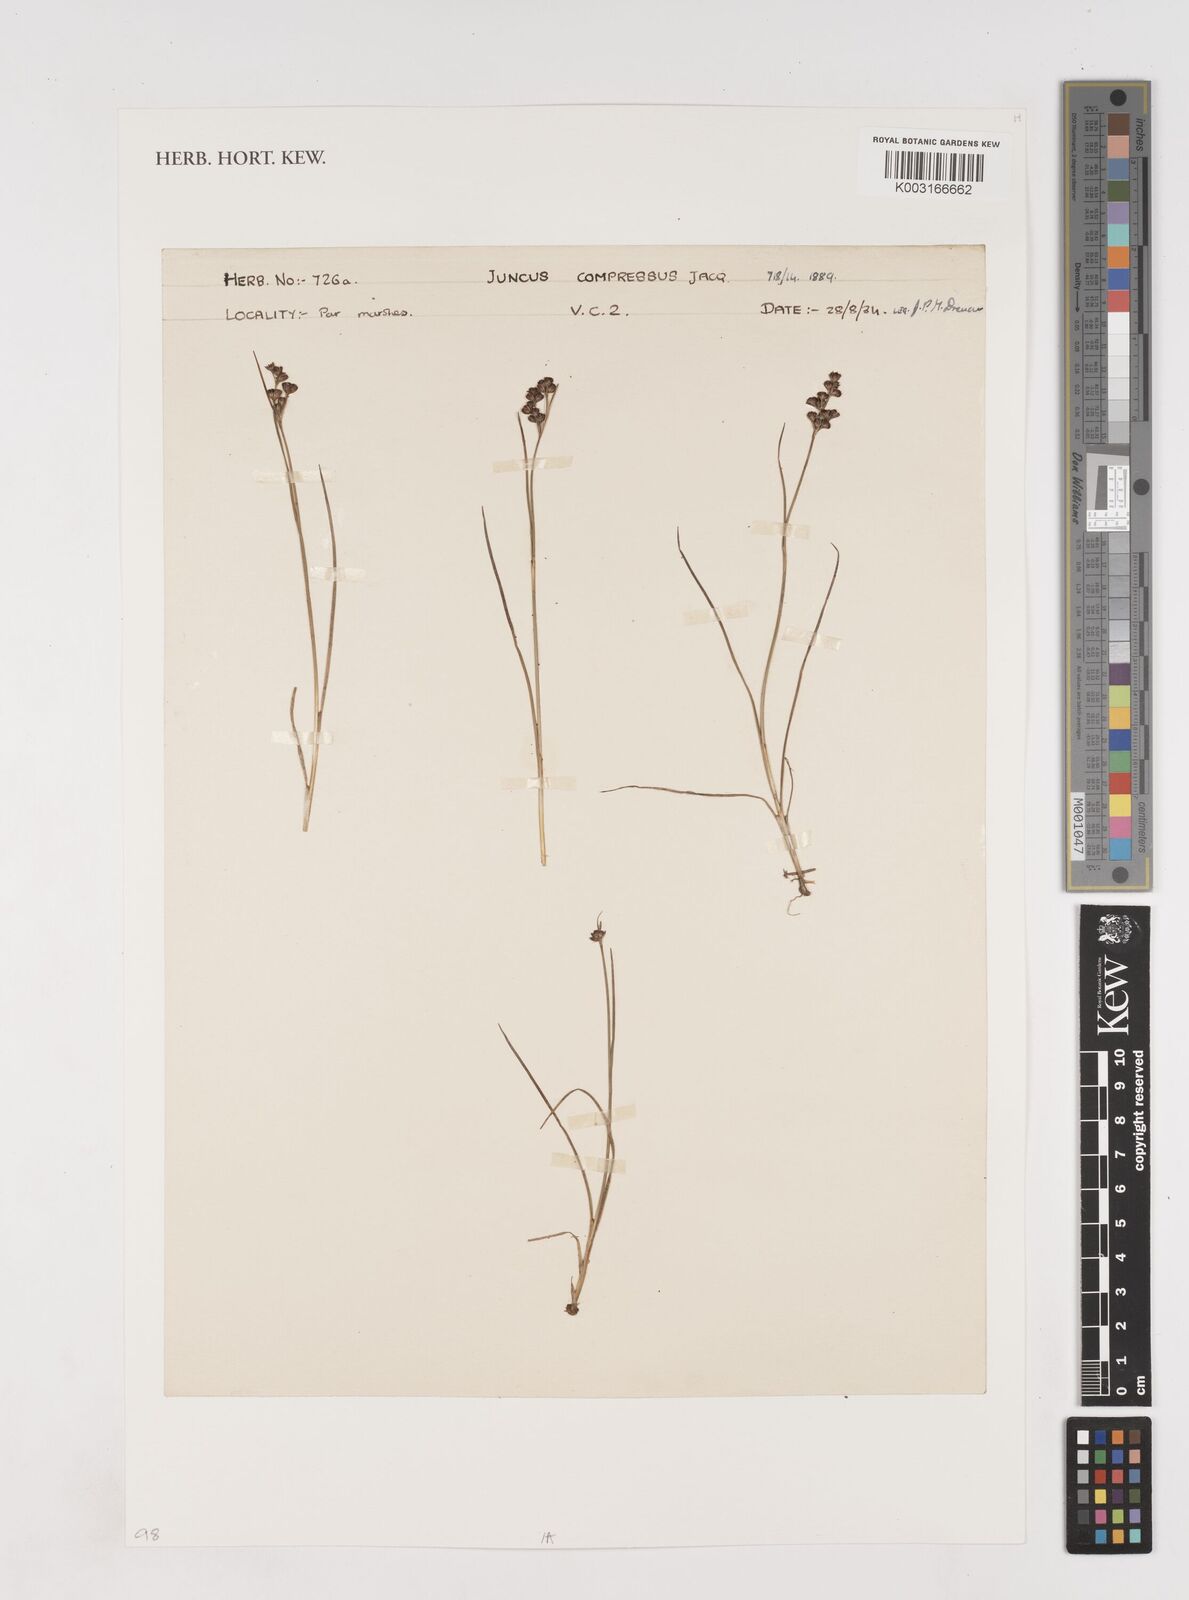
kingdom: Plantae
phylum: Tracheophyta
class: Liliopsida
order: Poales
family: Juncaceae
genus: Juncus
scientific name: Juncus compressus
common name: Round-fruited rush
